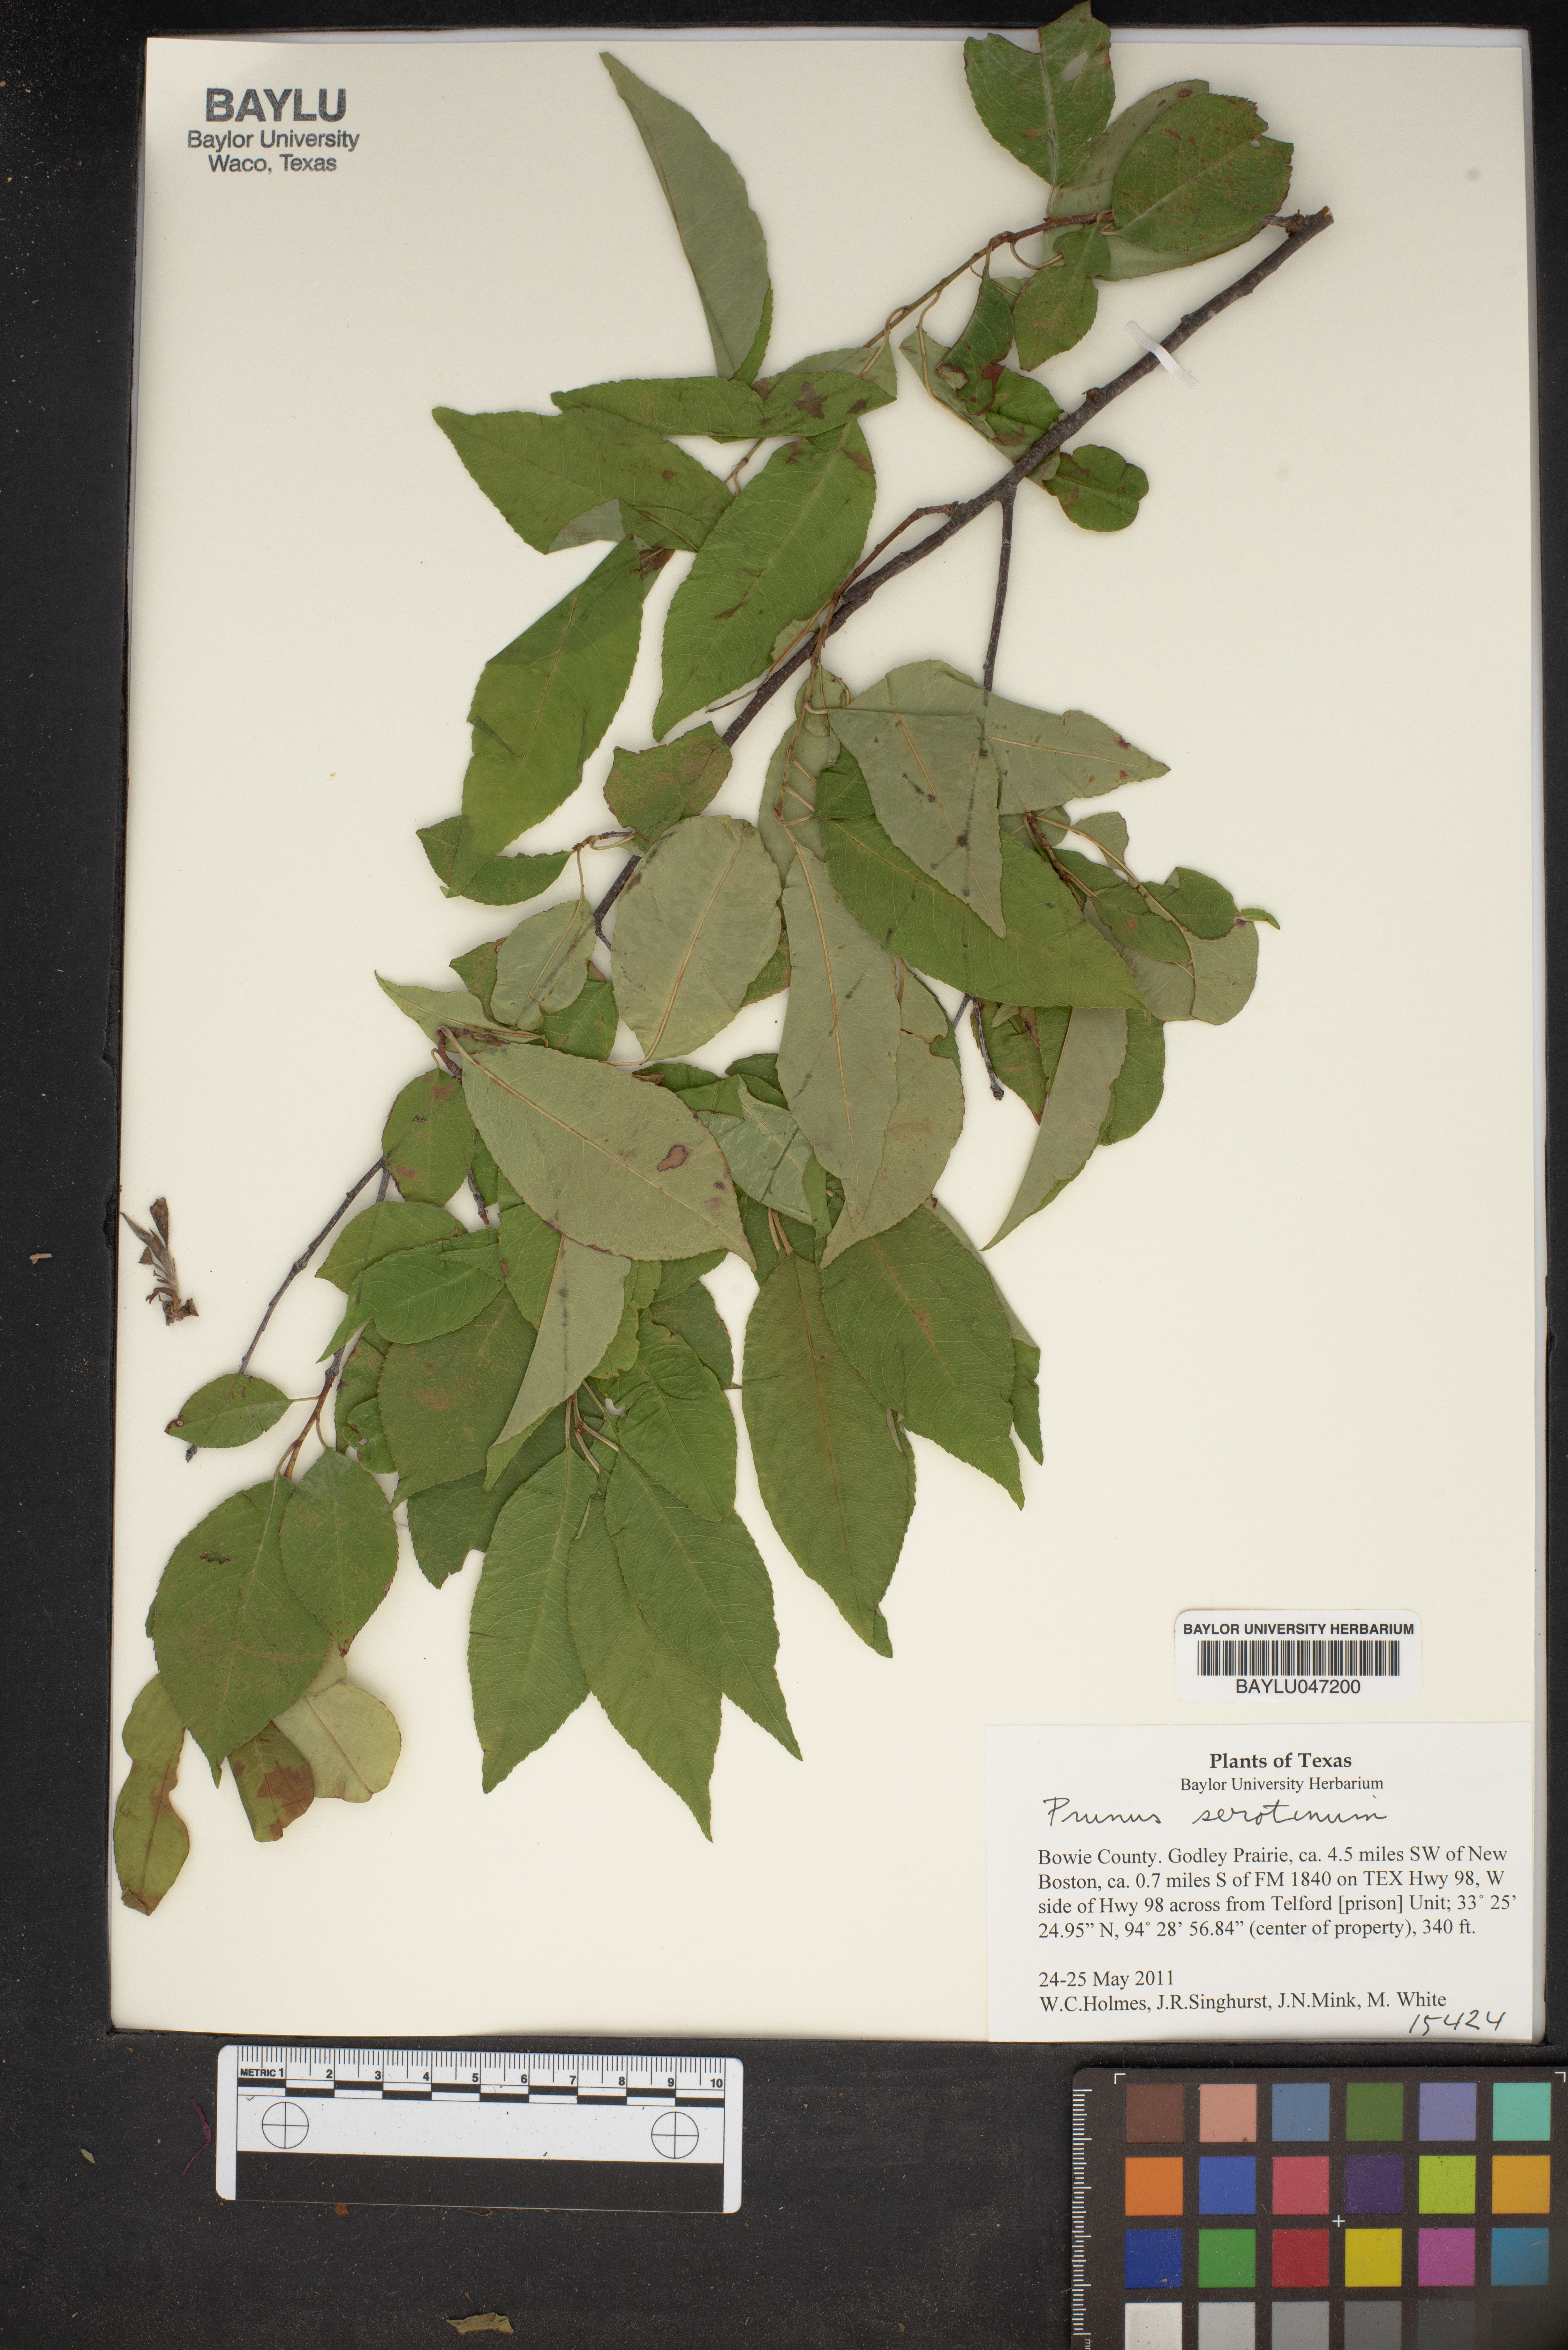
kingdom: Plantae
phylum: Tracheophyta
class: Magnoliopsida
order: Rosales
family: Rosaceae
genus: Prunus
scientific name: Prunus serotina
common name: Black cherry
